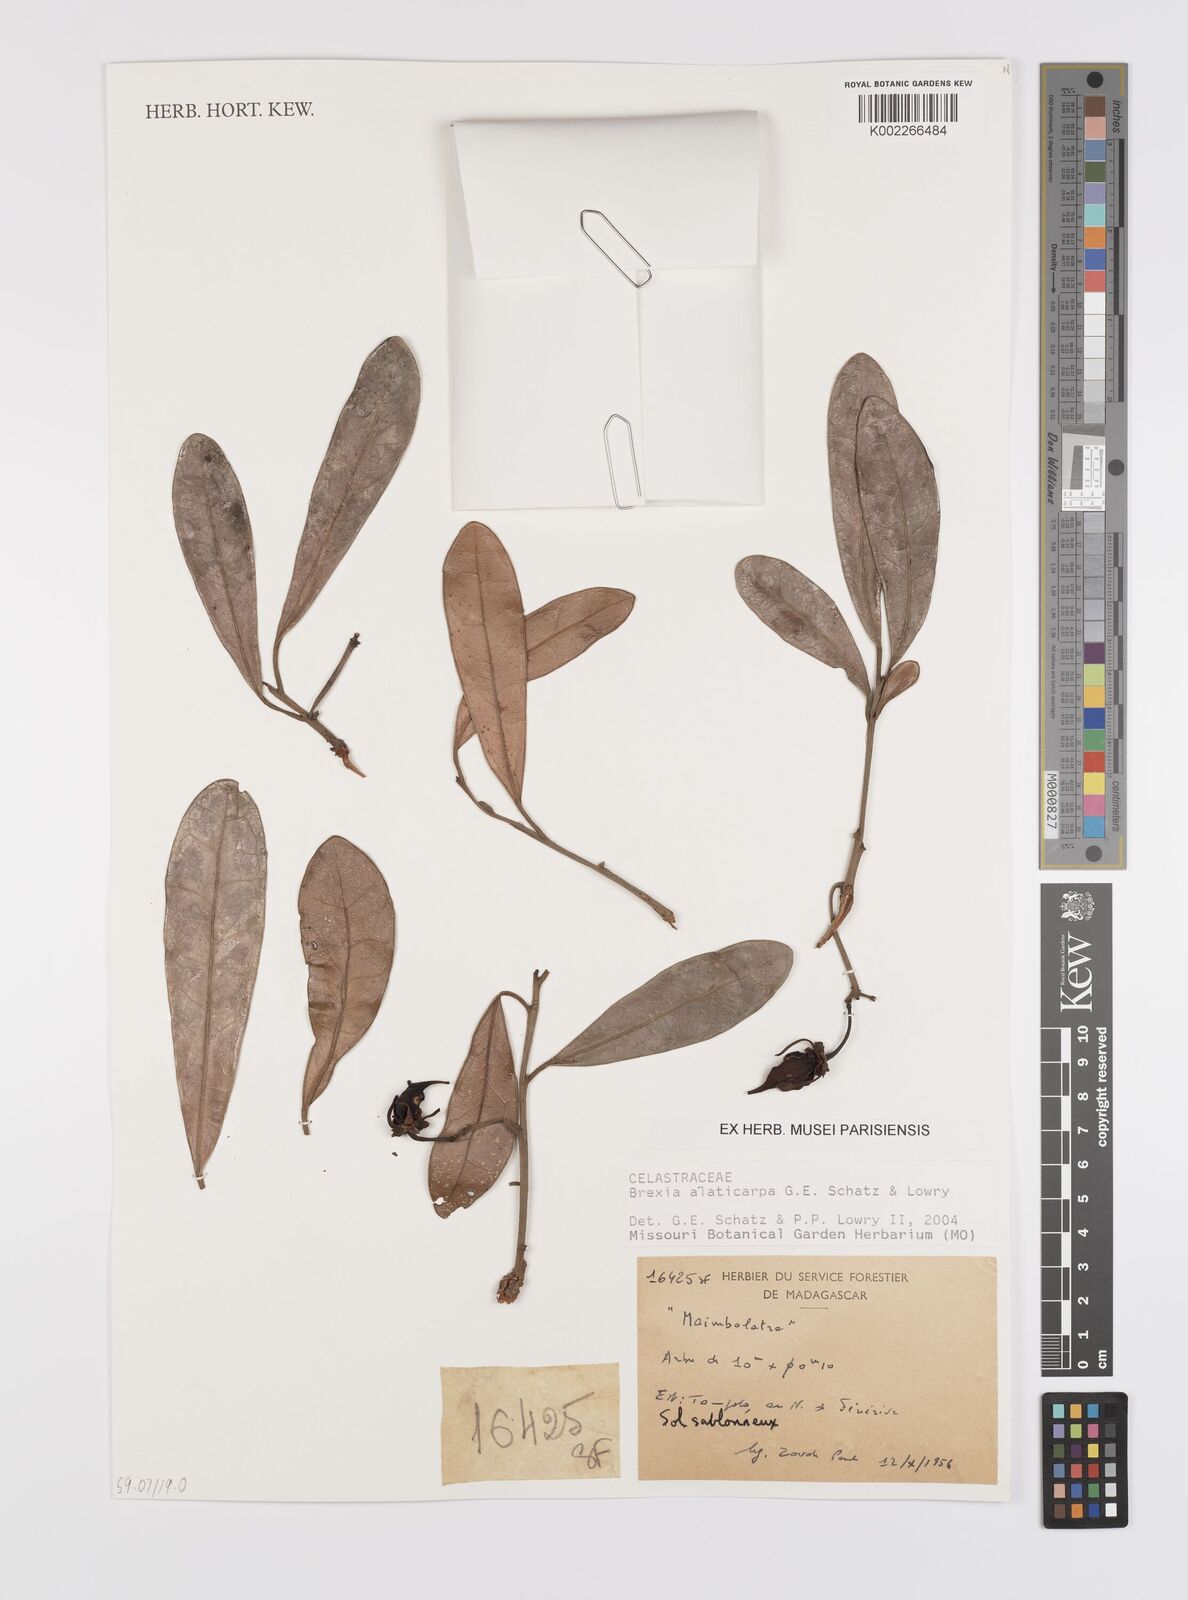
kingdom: Plantae
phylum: Tracheophyta
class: Magnoliopsida
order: Celastrales
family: Celastraceae
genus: Brexia
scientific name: Brexia alaticarpa
